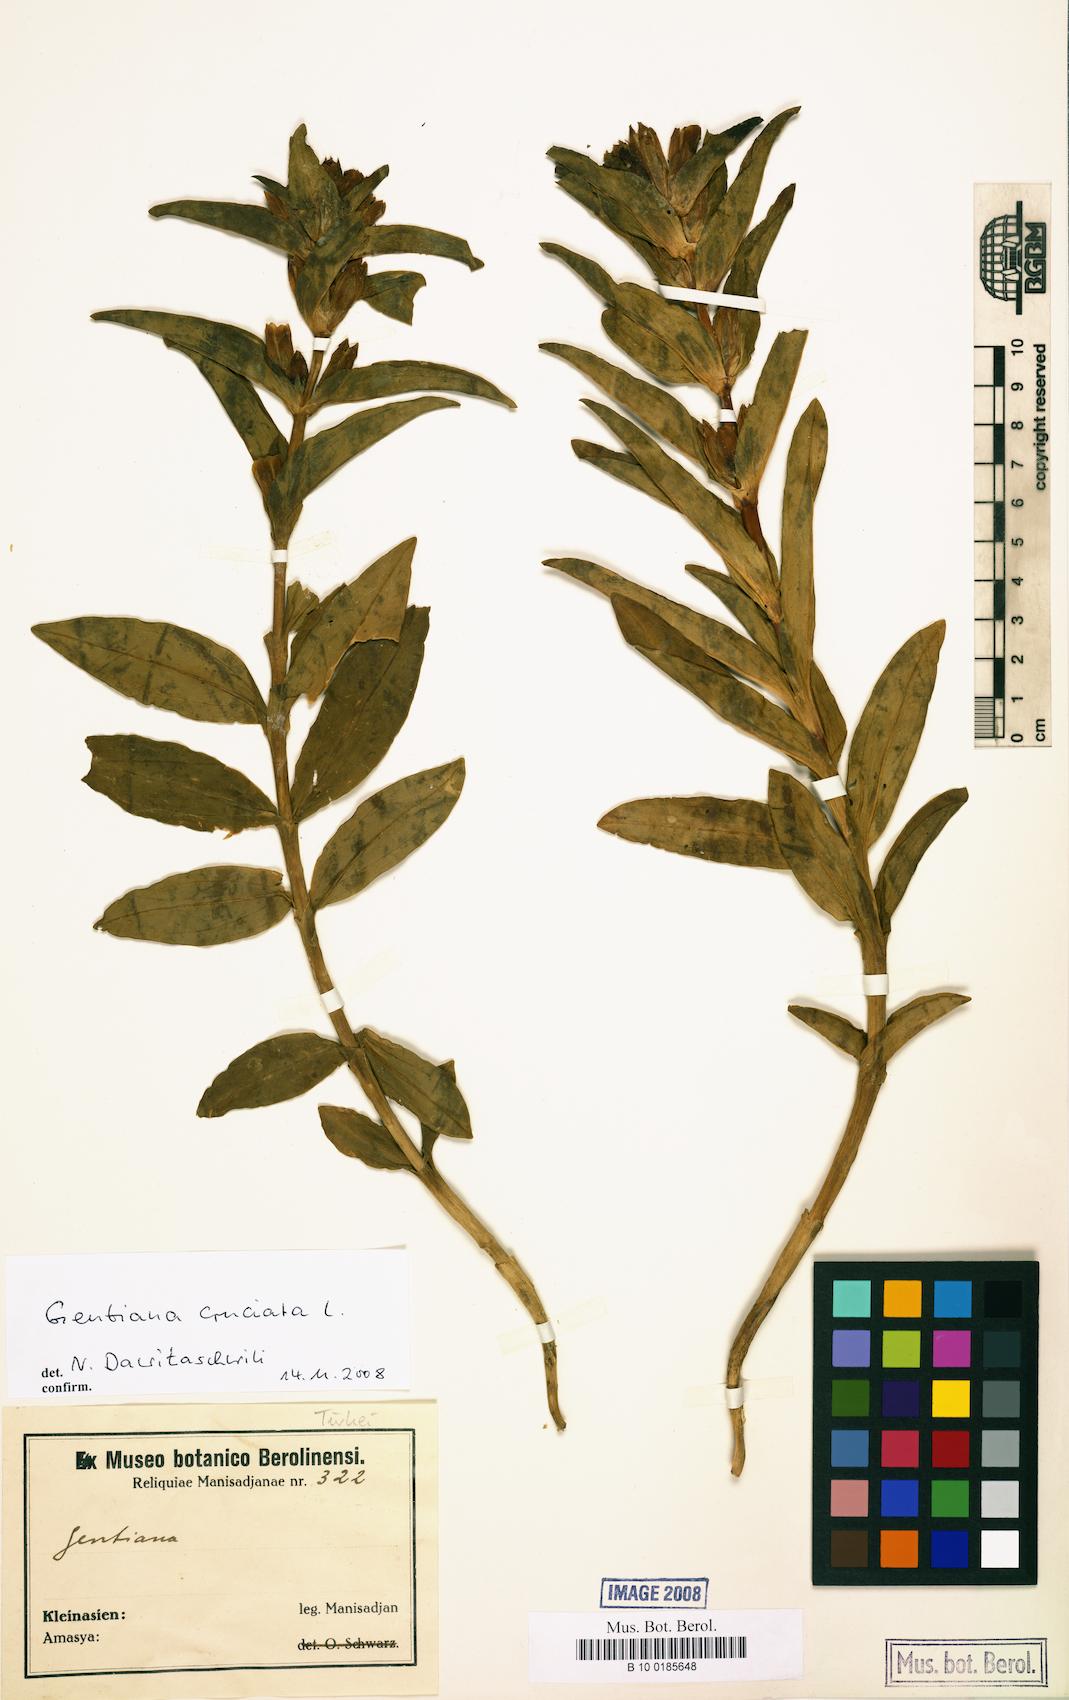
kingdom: Plantae
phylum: Tracheophyta
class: Magnoliopsida
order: Gentianales
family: Gentianaceae
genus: Gentiana
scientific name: Gentiana cruciata
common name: Cross gentian
